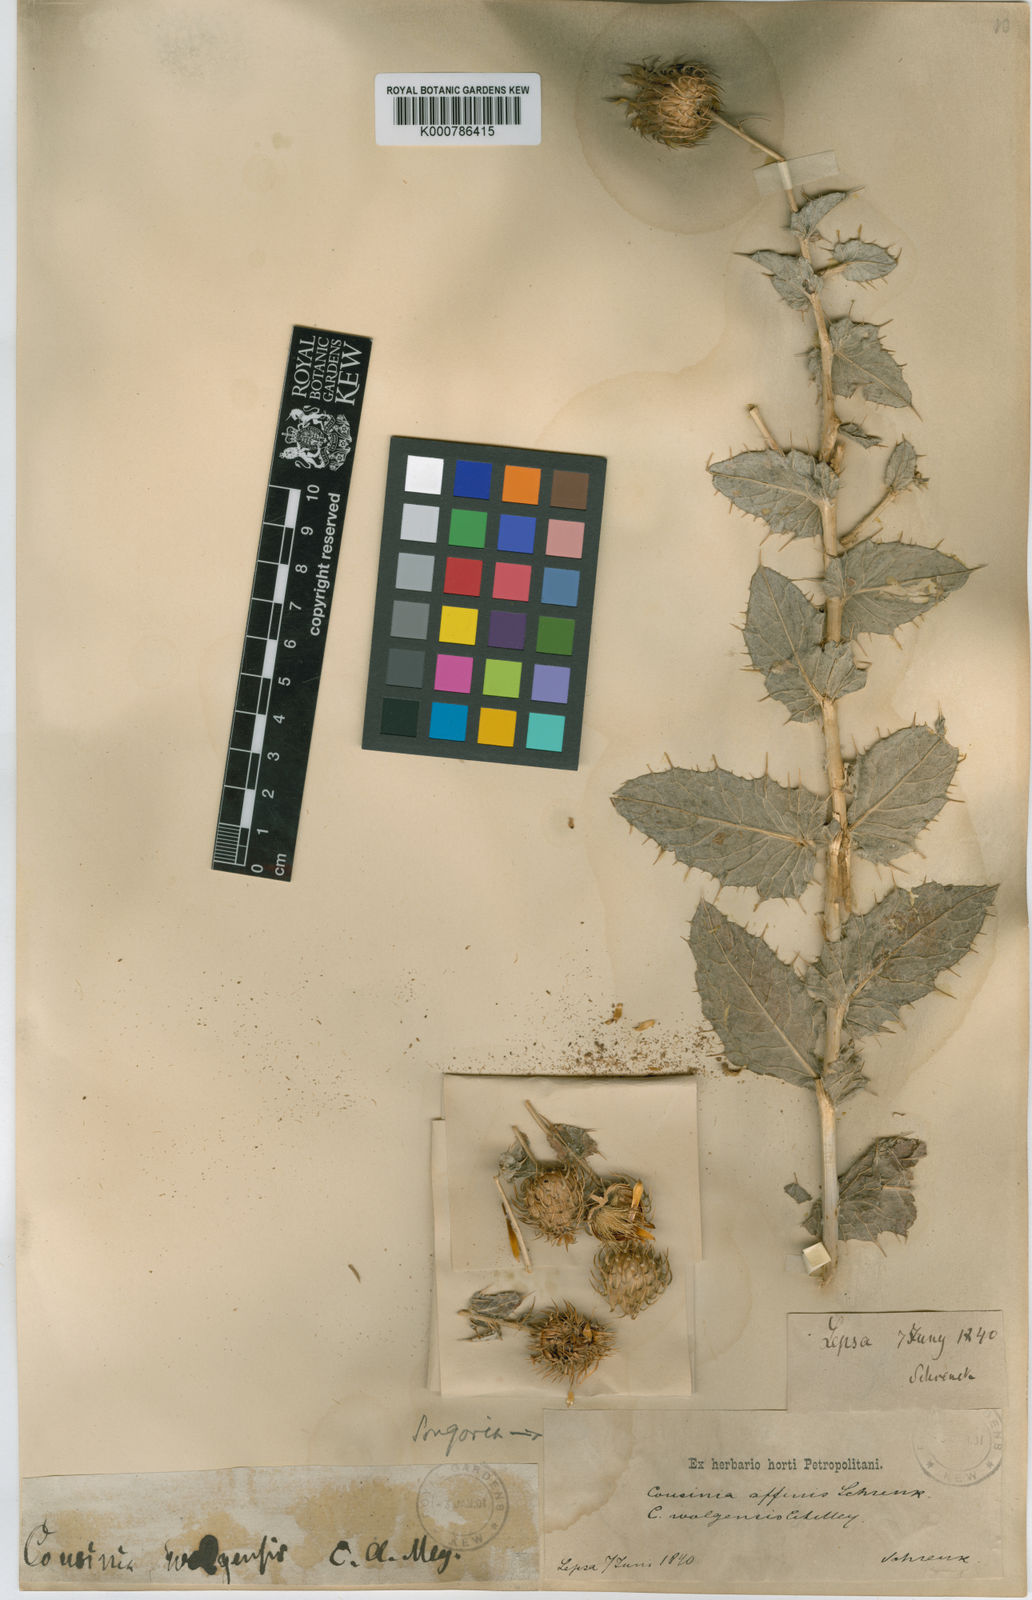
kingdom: Plantae
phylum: Tracheophyta
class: Magnoliopsida
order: Asterales
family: Asteraceae
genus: Cousinia
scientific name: Cousinia affinis
